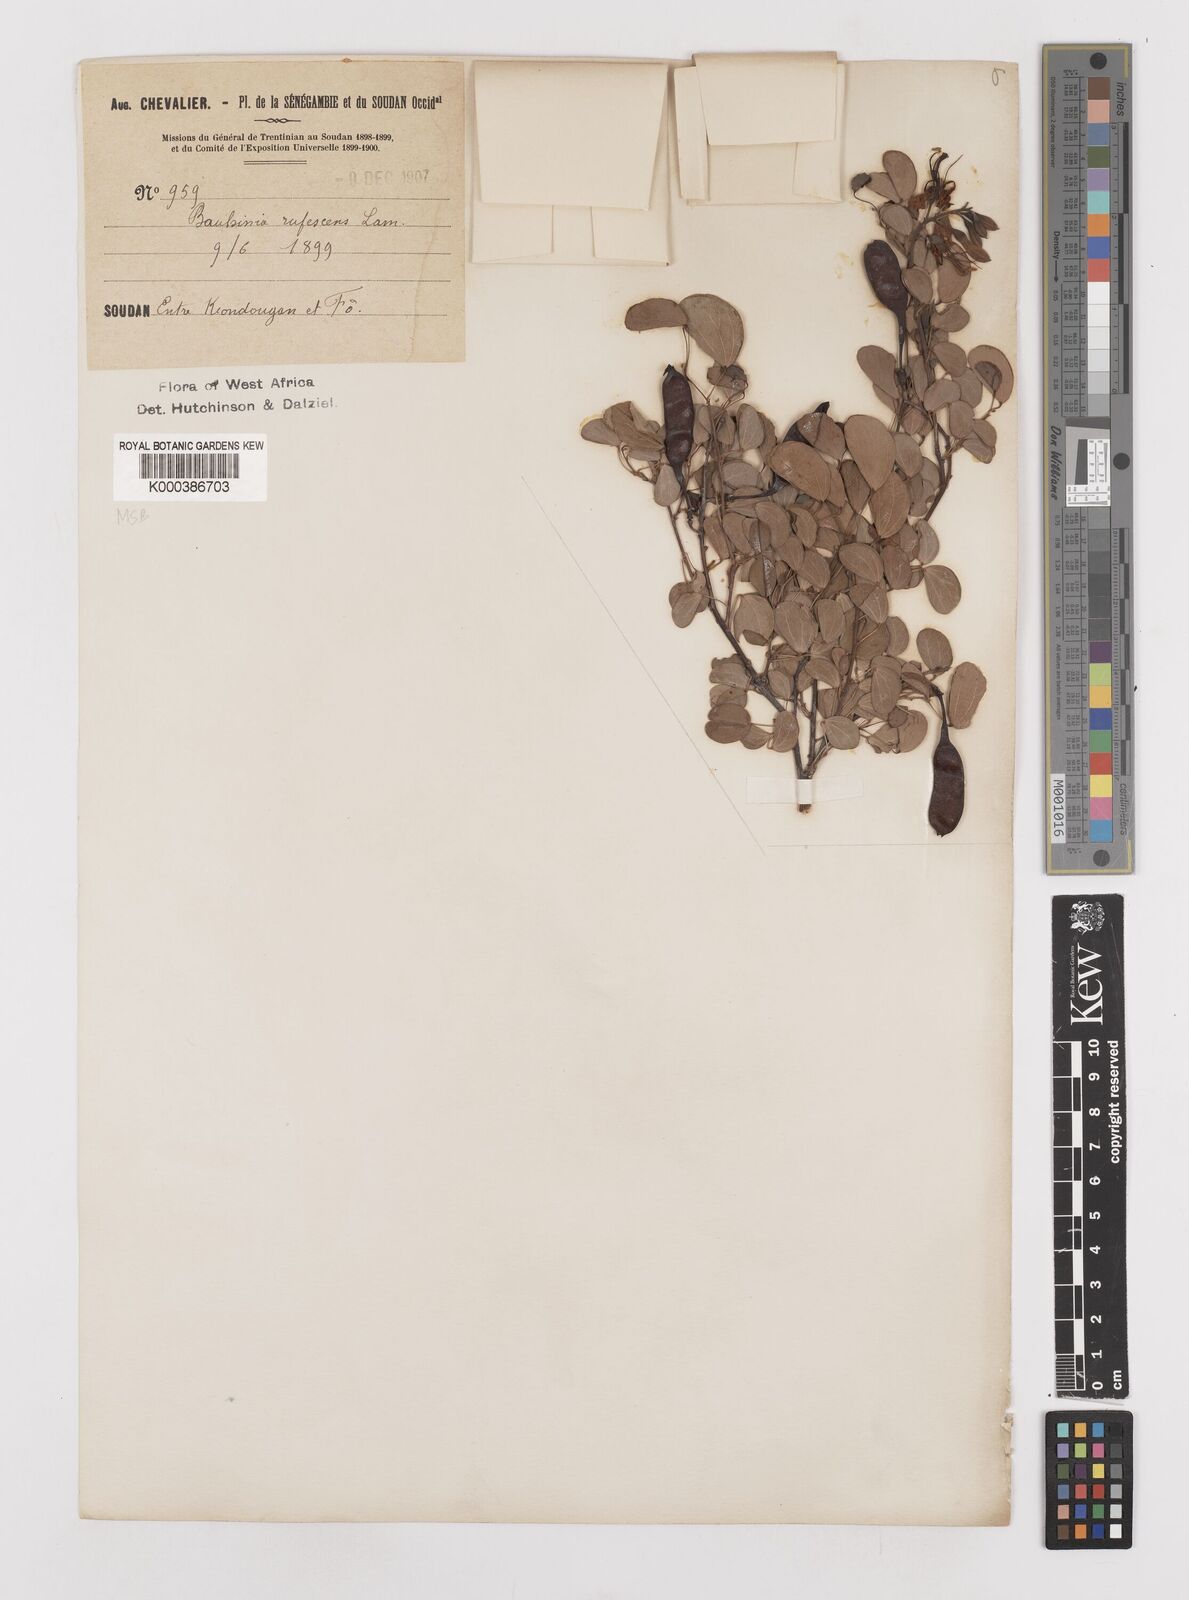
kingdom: Plantae
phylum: Tracheophyta
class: Magnoliopsida
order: Fabales
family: Fabaceae
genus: Bauhinia
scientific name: Bauhinia rufescens
